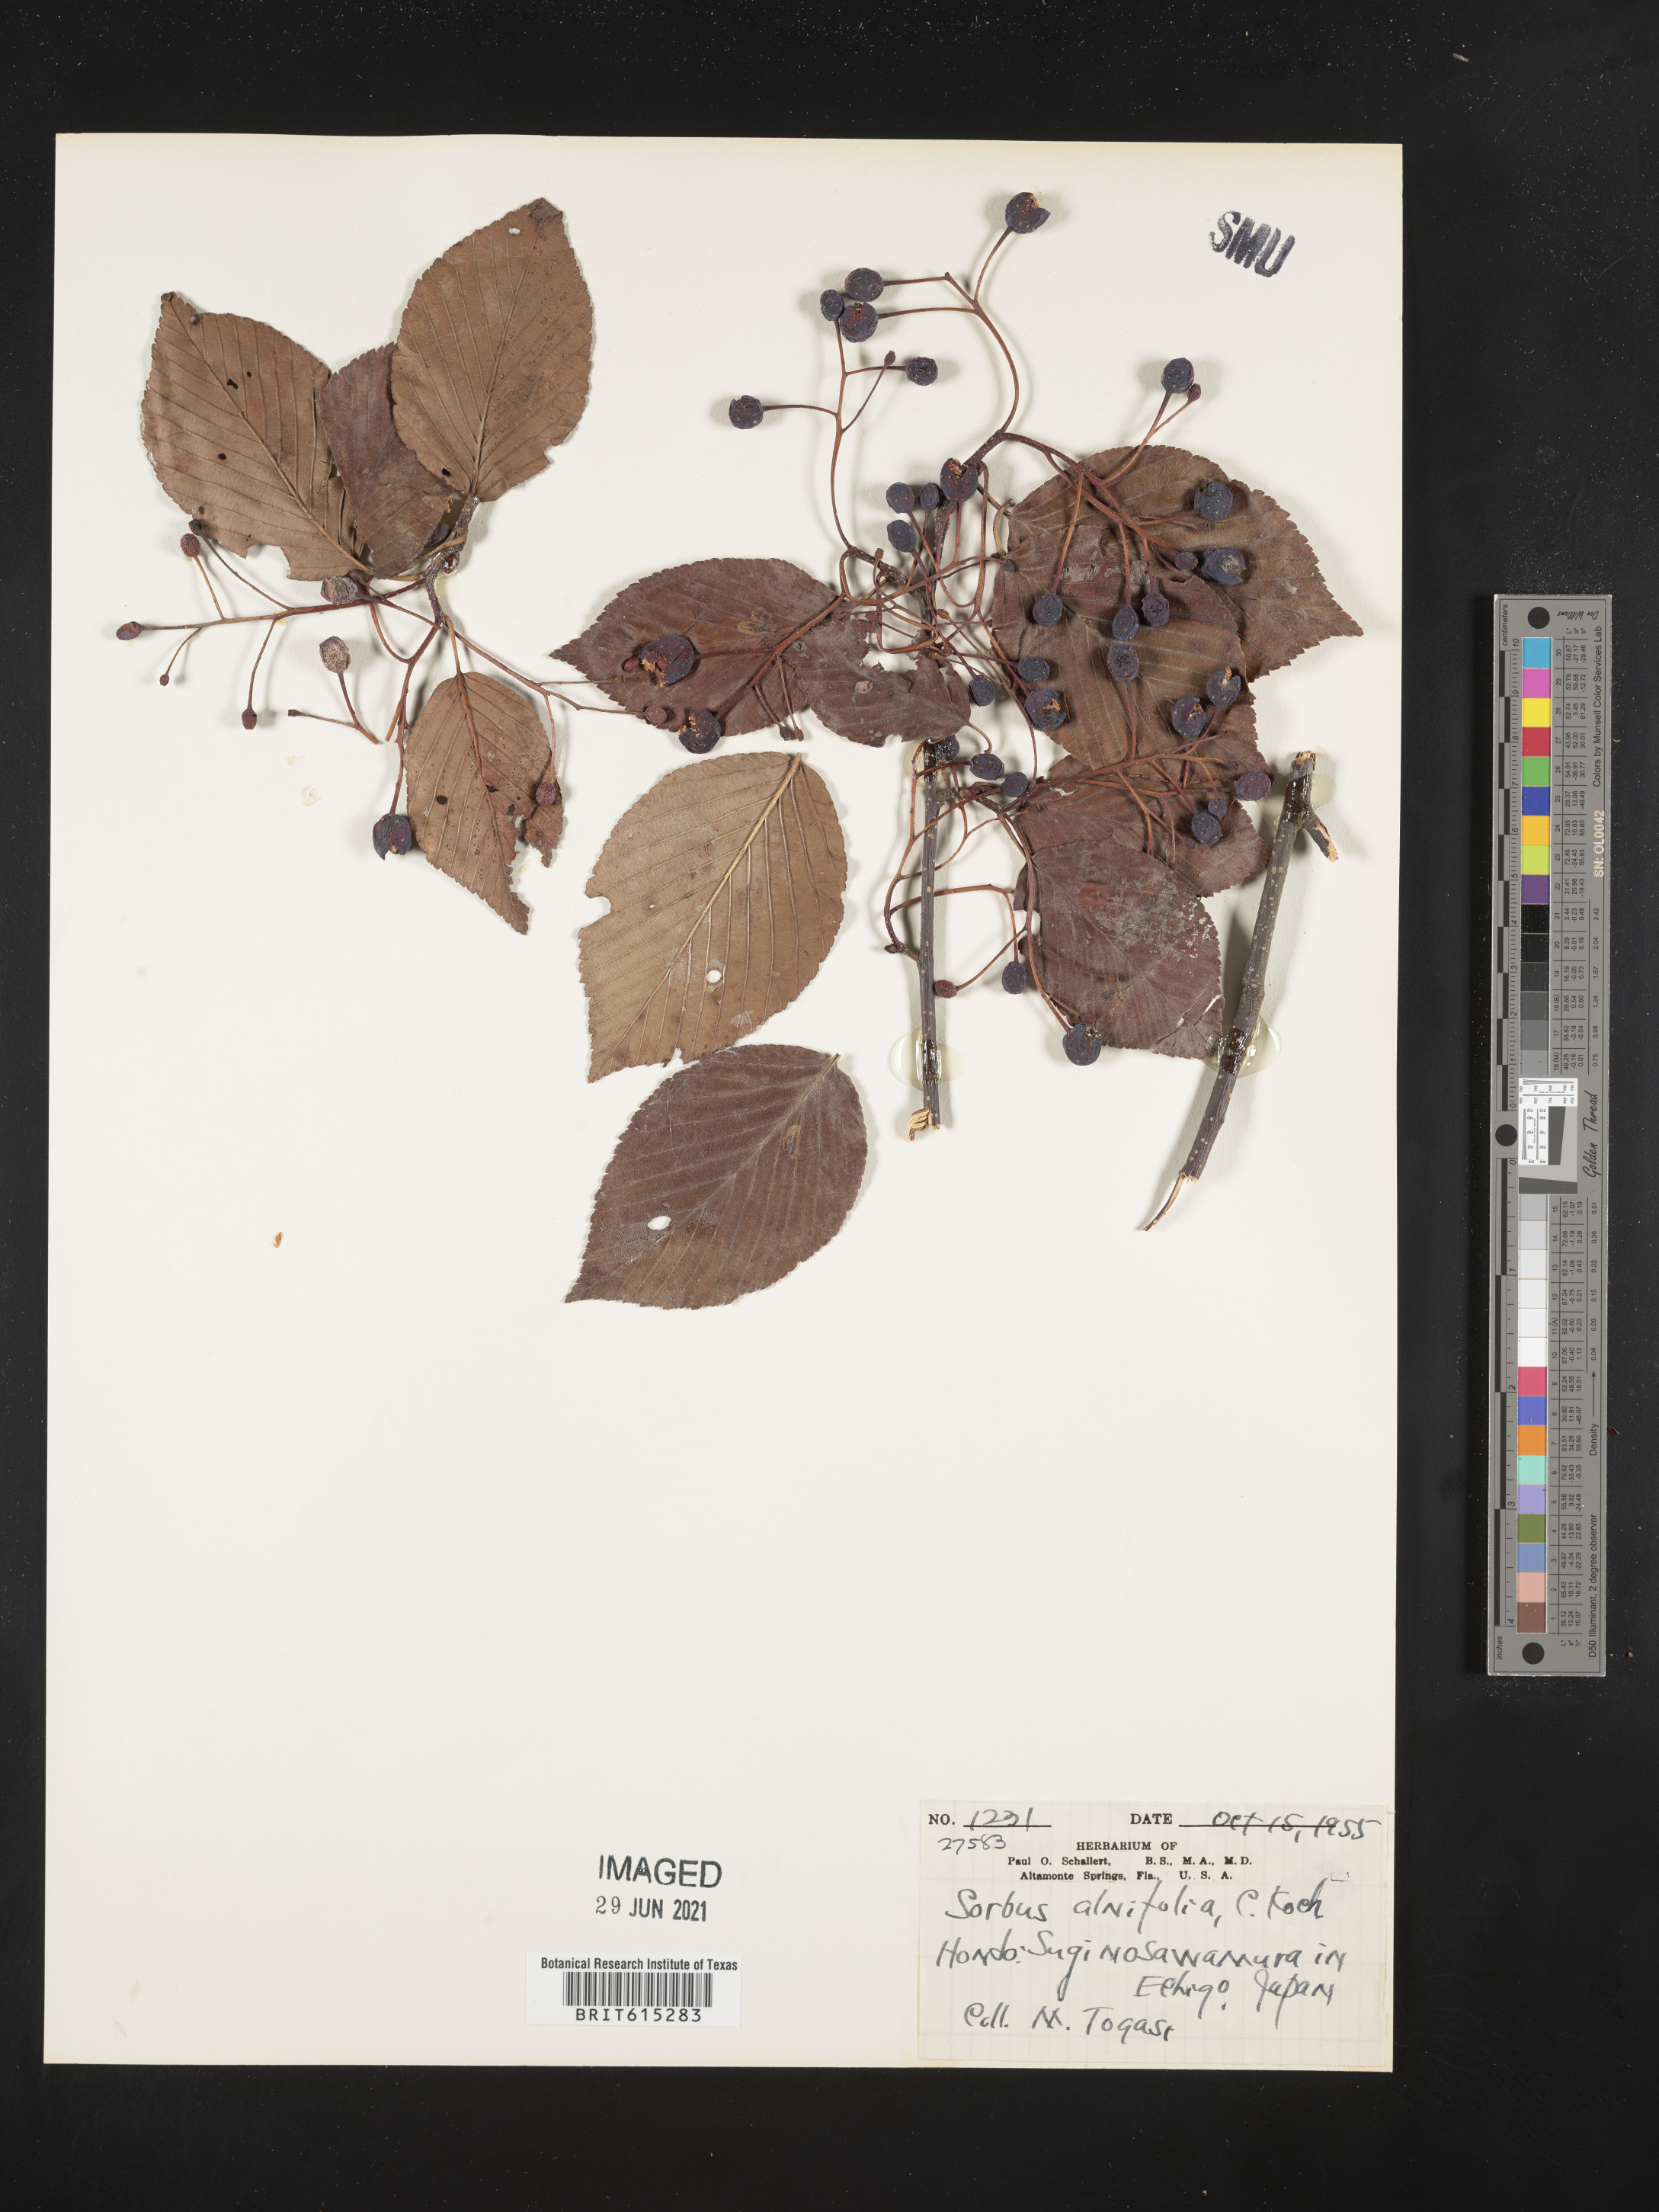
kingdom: Plantae
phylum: Tracheophyta
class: Magnoliopsida
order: Rosales
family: Rosaceae
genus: Sorbus
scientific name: Sorbus alnifolia
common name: Mountain-ash
